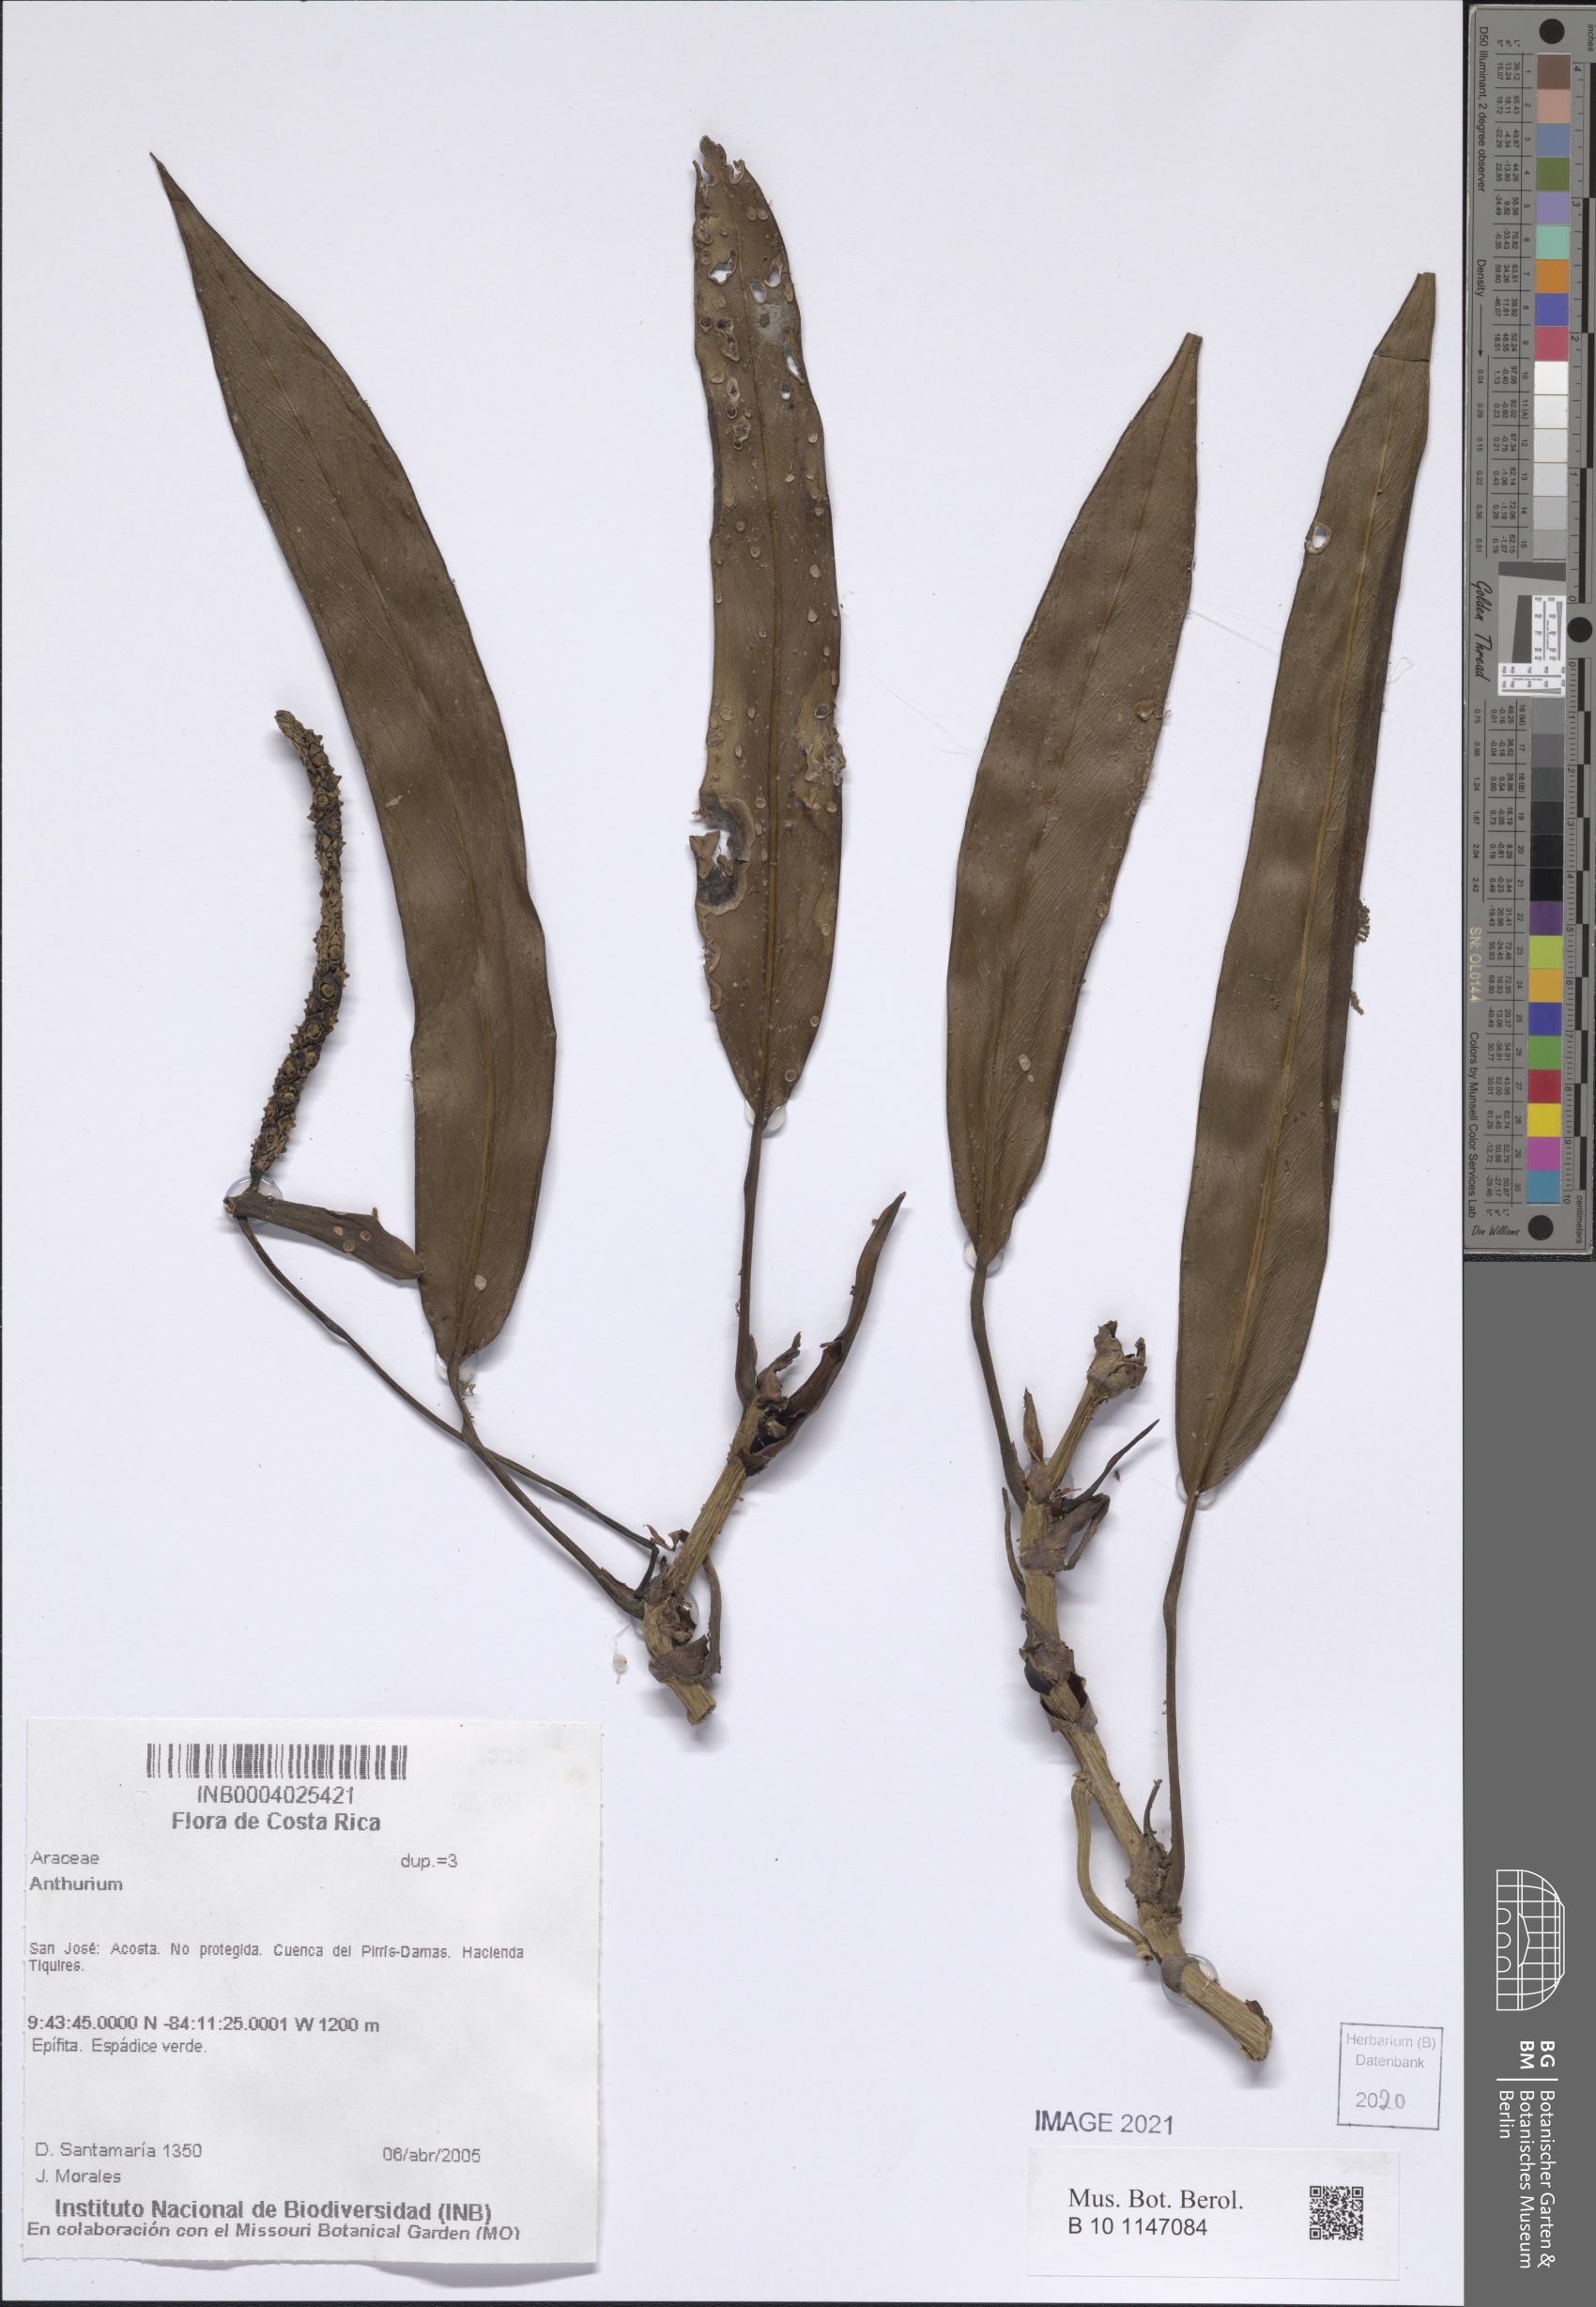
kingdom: Plantae
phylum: Tracheophyta
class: Liliopsida
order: Alismatales
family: Araceae
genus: Anthurium
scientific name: Anthurium
